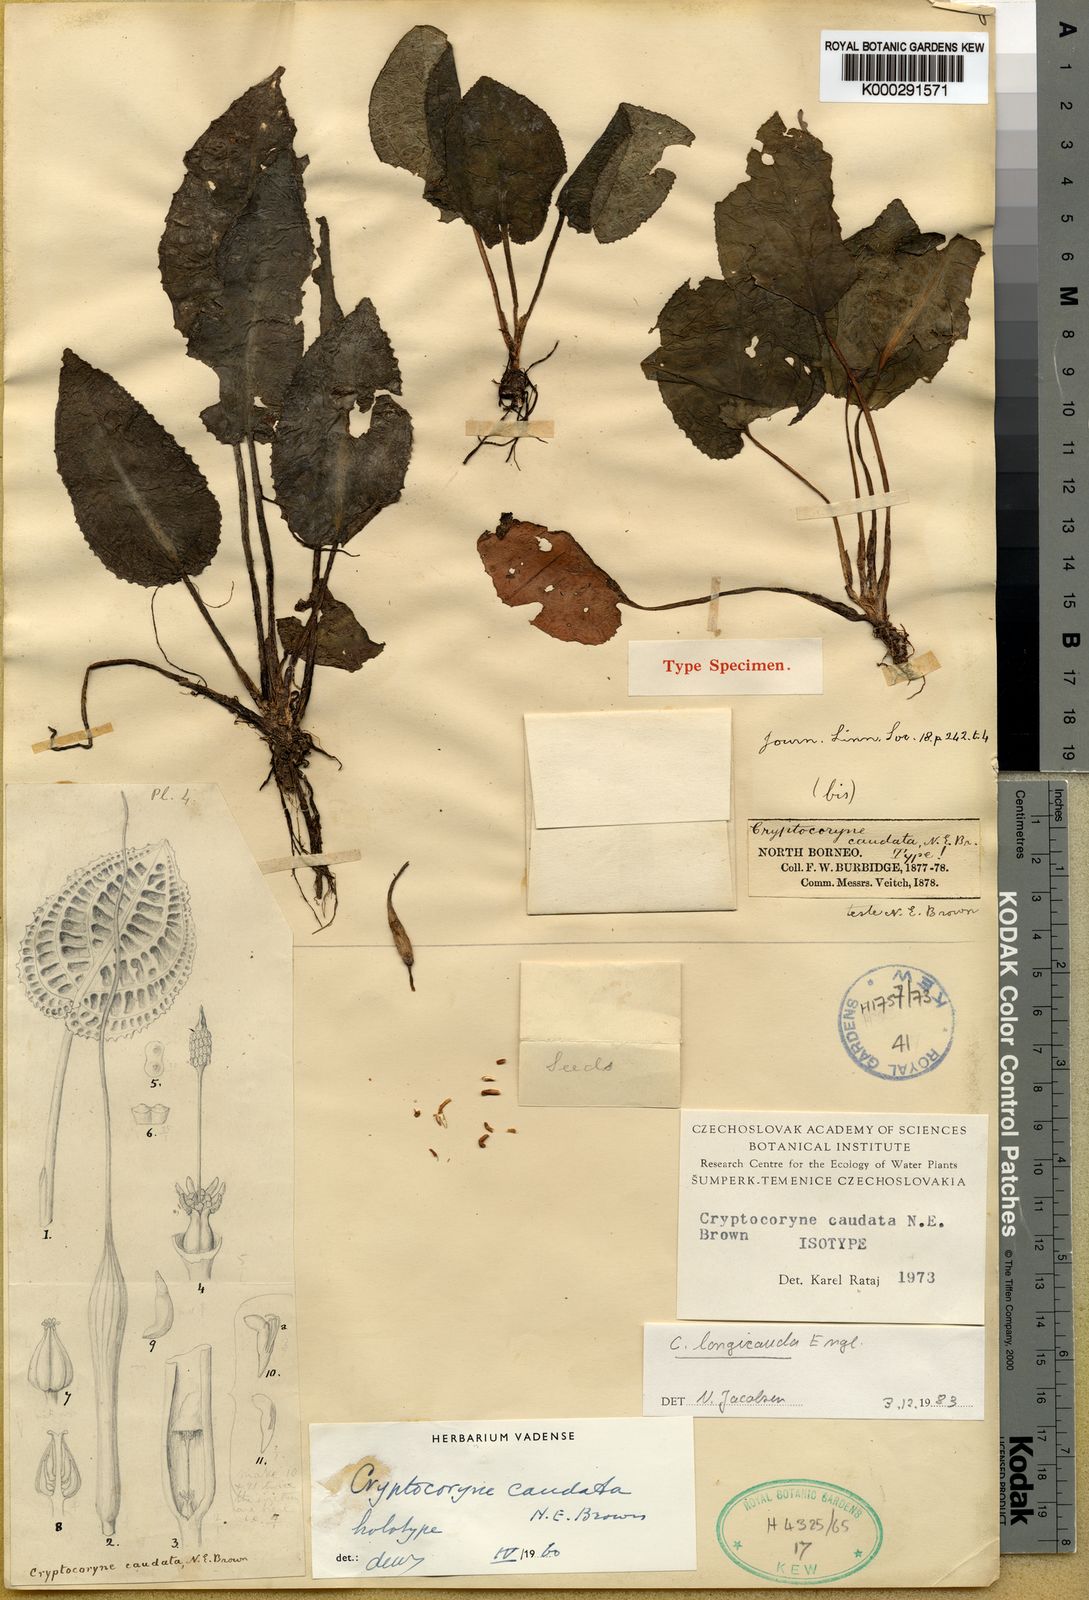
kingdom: Plantae
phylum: Tracheophyta
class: Liliopsida
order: Alismatales
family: Araceae
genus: Cryptocoryne
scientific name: Cryptocoryne longicauda
